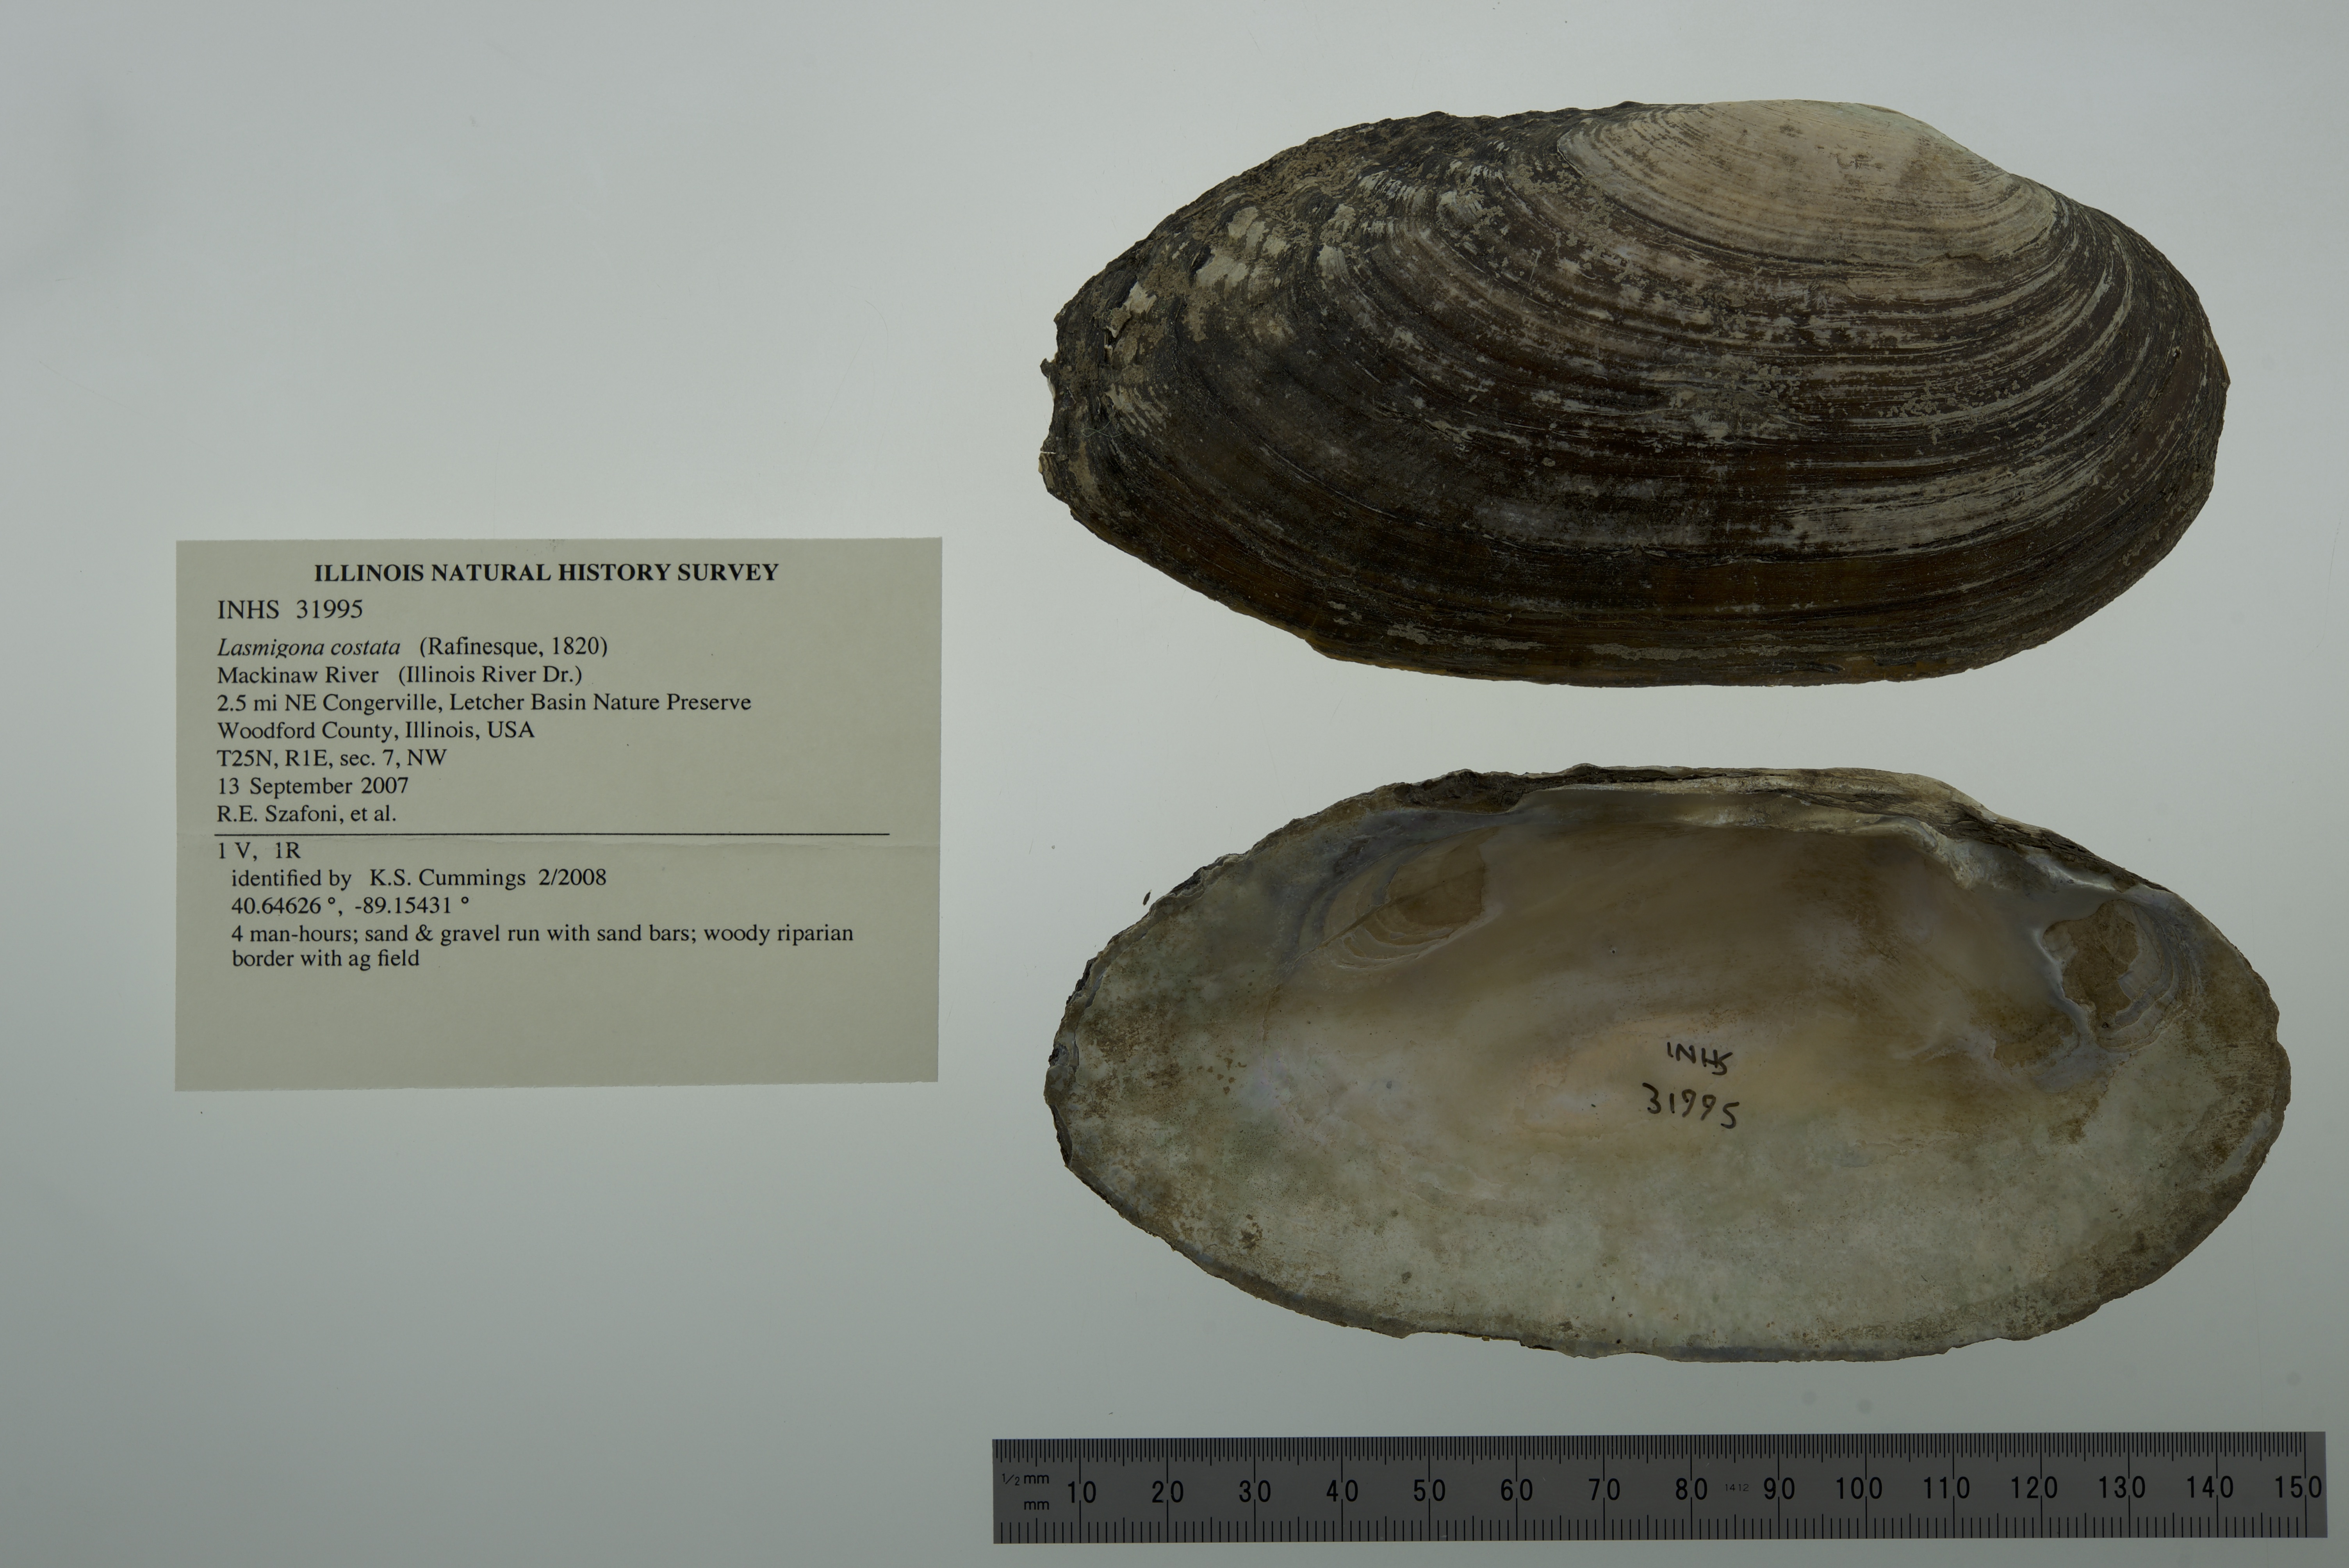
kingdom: Animalia
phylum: Mollusca
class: Bivalvia
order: Unionida
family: Unionidae
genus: Lasmigona
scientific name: Lasmigona costata
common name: Flutedshell
